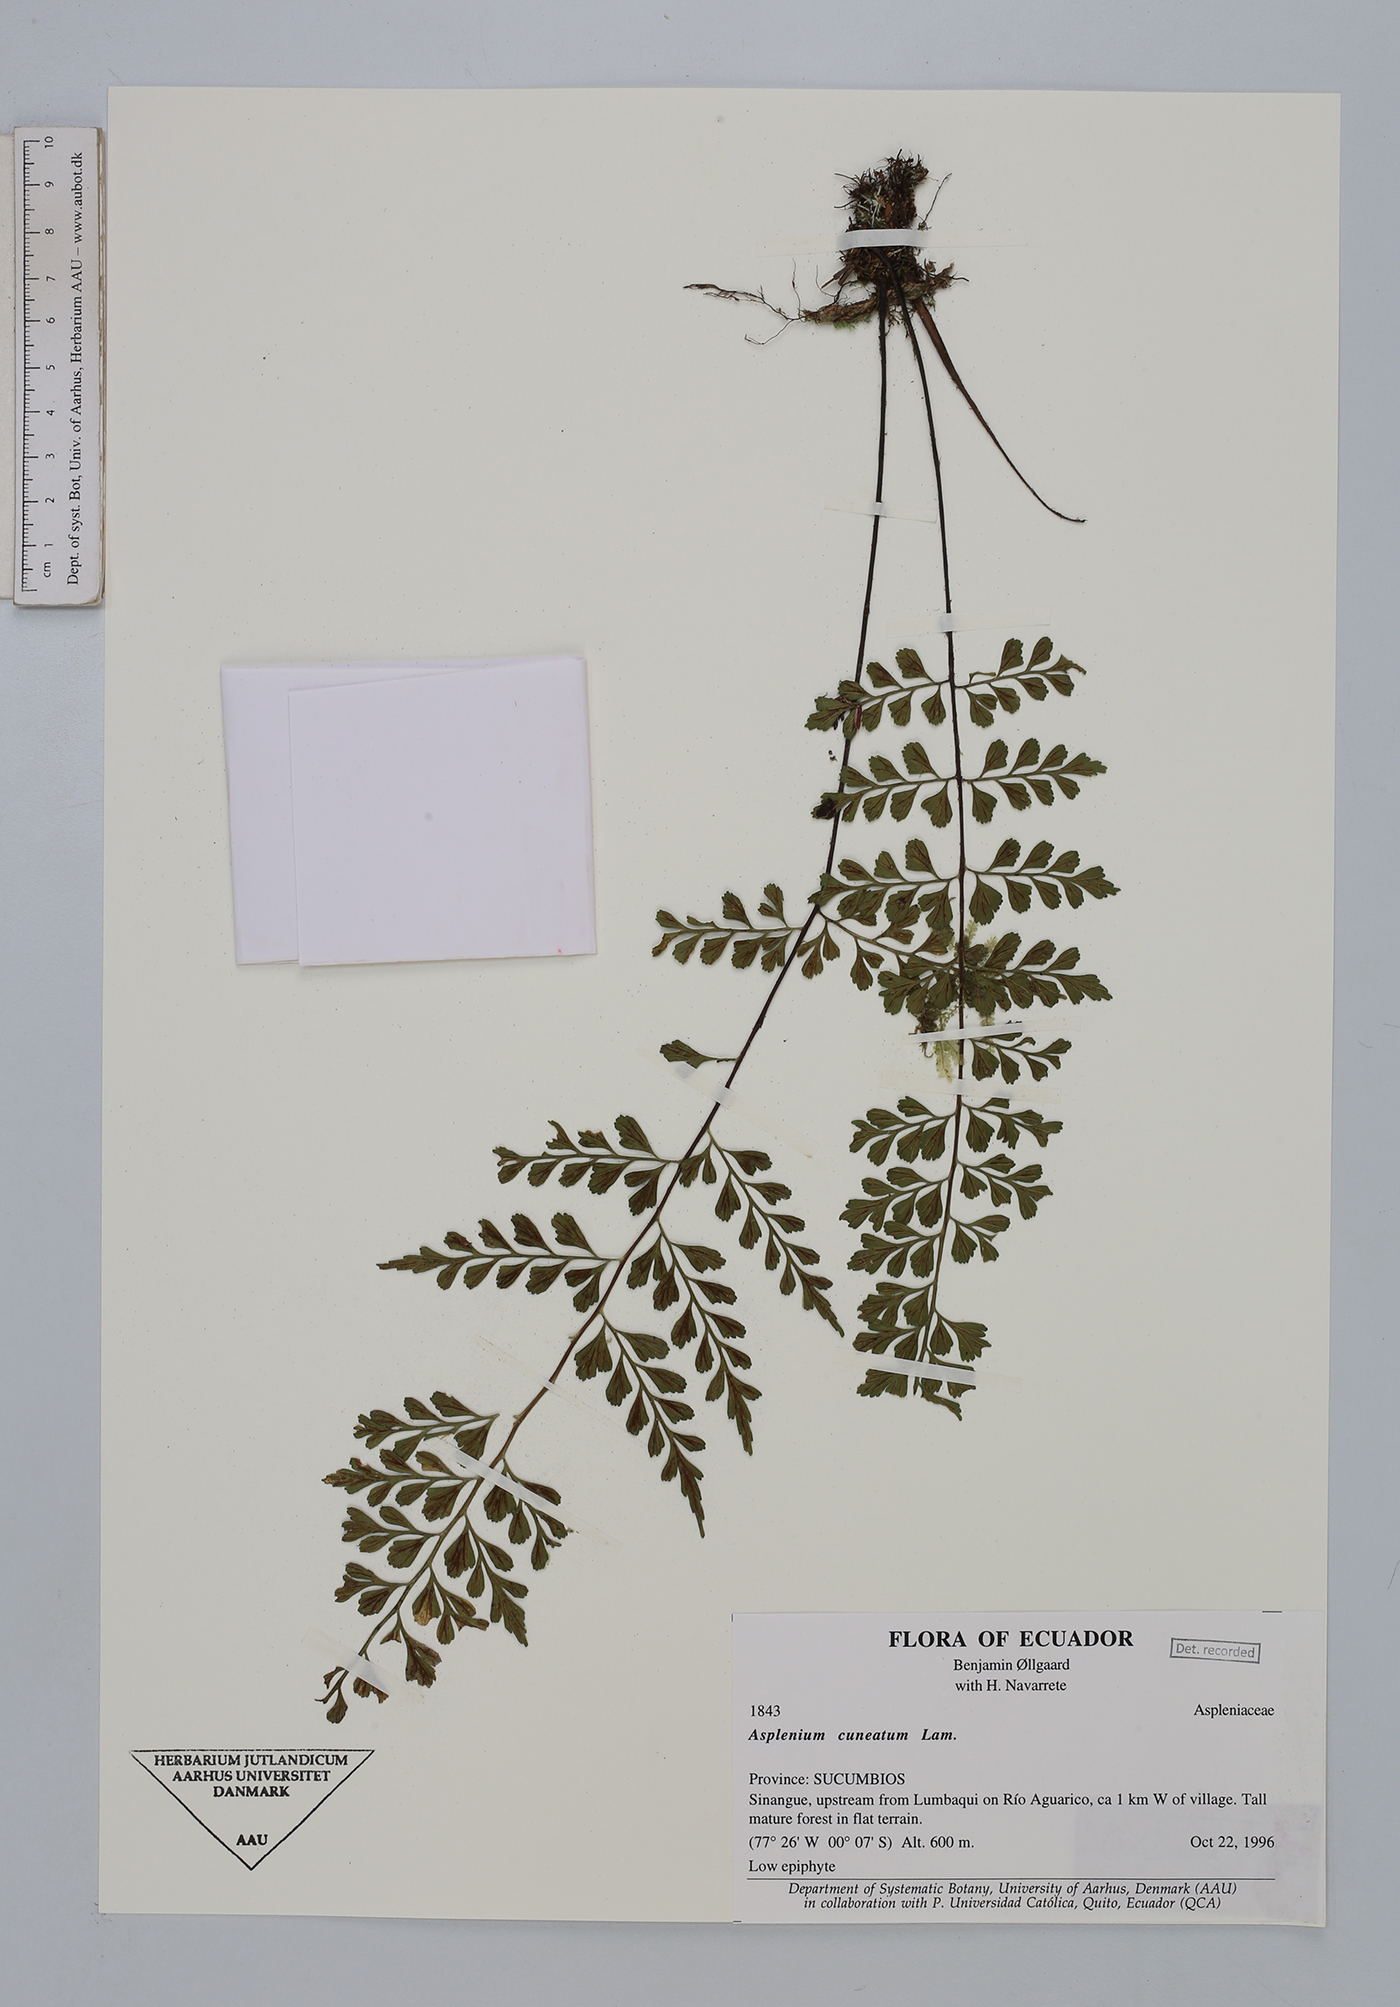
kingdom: Plantae
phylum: Tracheophyta
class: Polypodiopsida
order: Polypodiales
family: Aspleniaceae
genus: Asplenium
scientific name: Asplenium cuneatum
